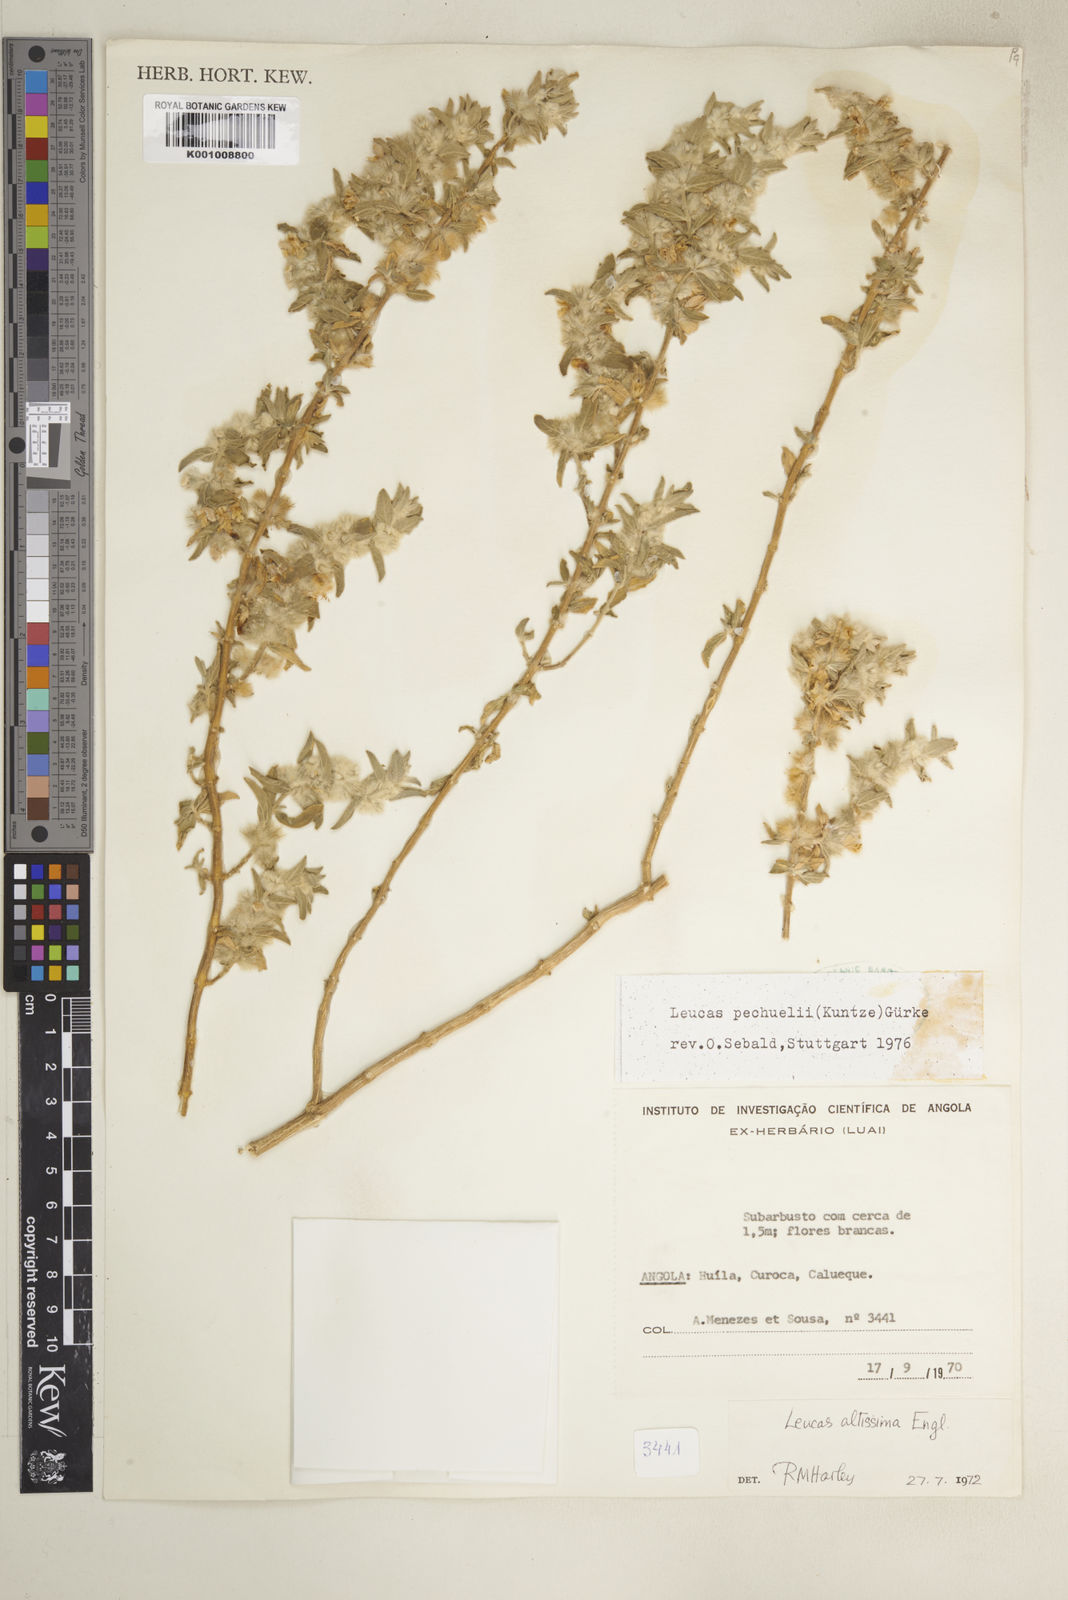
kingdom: Plantae
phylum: Tracheophyta
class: Magnoliopsida
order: Lamiales
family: Lamiaceae
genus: Leucas
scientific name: Leucas pechuelii
